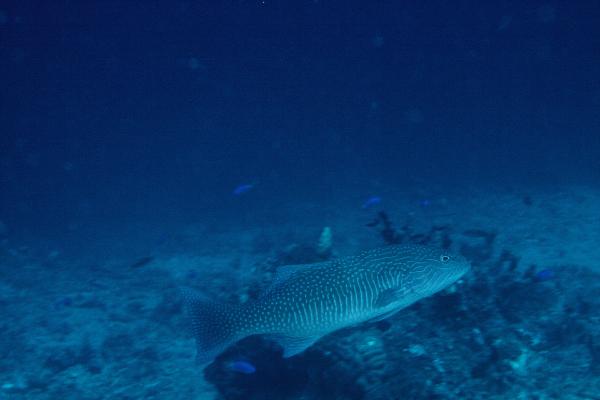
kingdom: Animalia
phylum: Chordata
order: Perciformes
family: Serranidae
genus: Plectropomus
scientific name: Plectropomus oligacanthus
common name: Highfin coral trout
